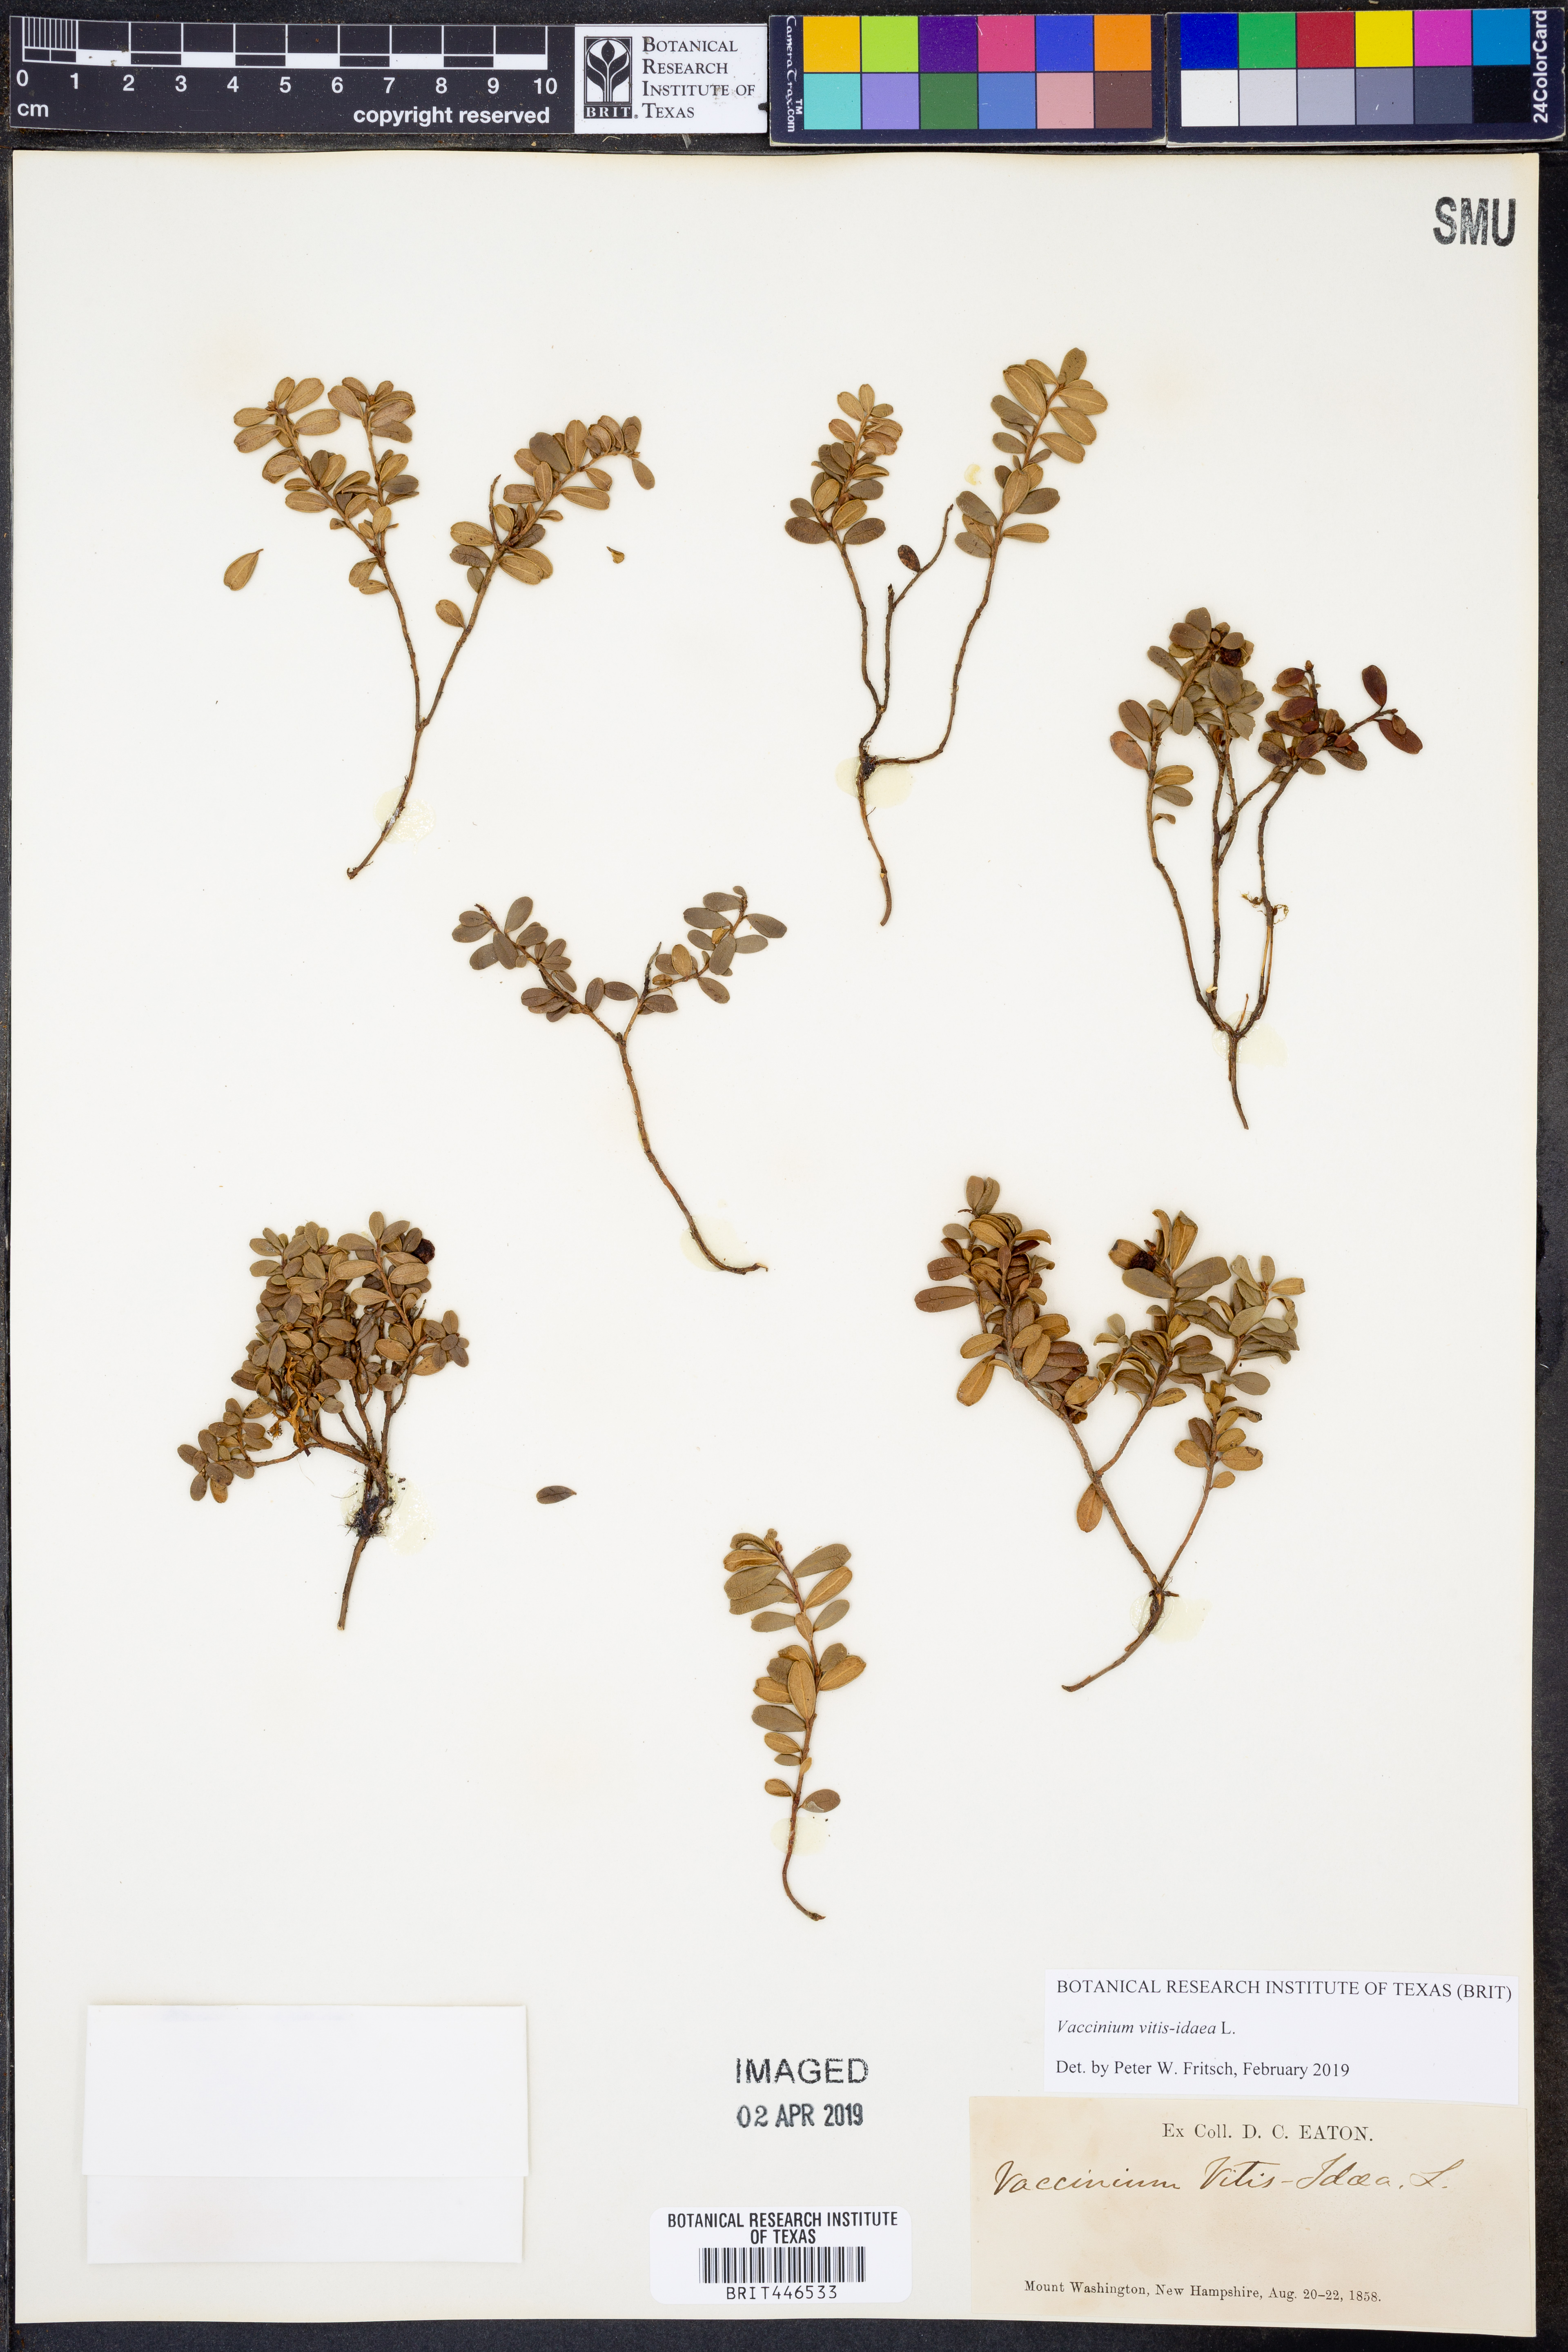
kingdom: Plantae
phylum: Tracheophyta
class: Magnoliopsida
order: Ericales
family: Ericaceae
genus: Vaccinium
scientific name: Vaccinium vitis-idaea
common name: Cowberry
